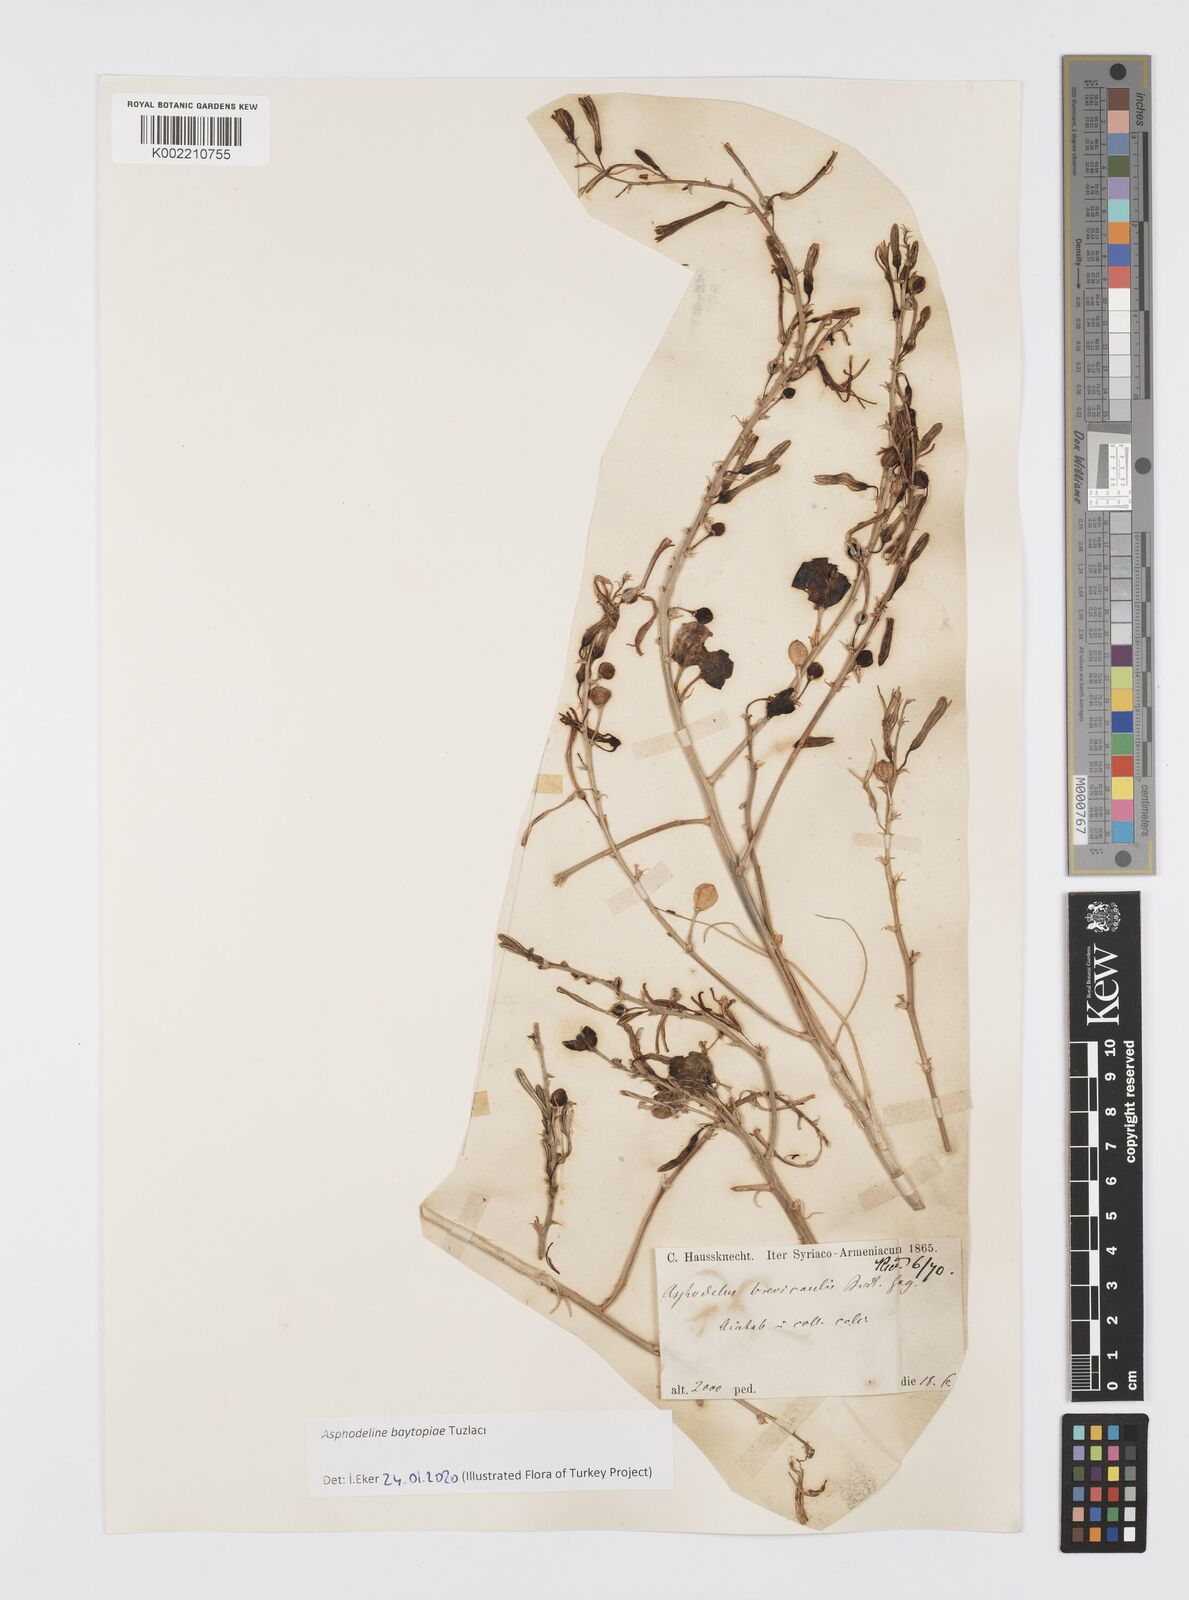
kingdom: Plantae
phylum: Tracheophyta
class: Liliopsida
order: Asparagales
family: Asphodelaceae
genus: Asphodeline
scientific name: Asphodeline baytopiae
